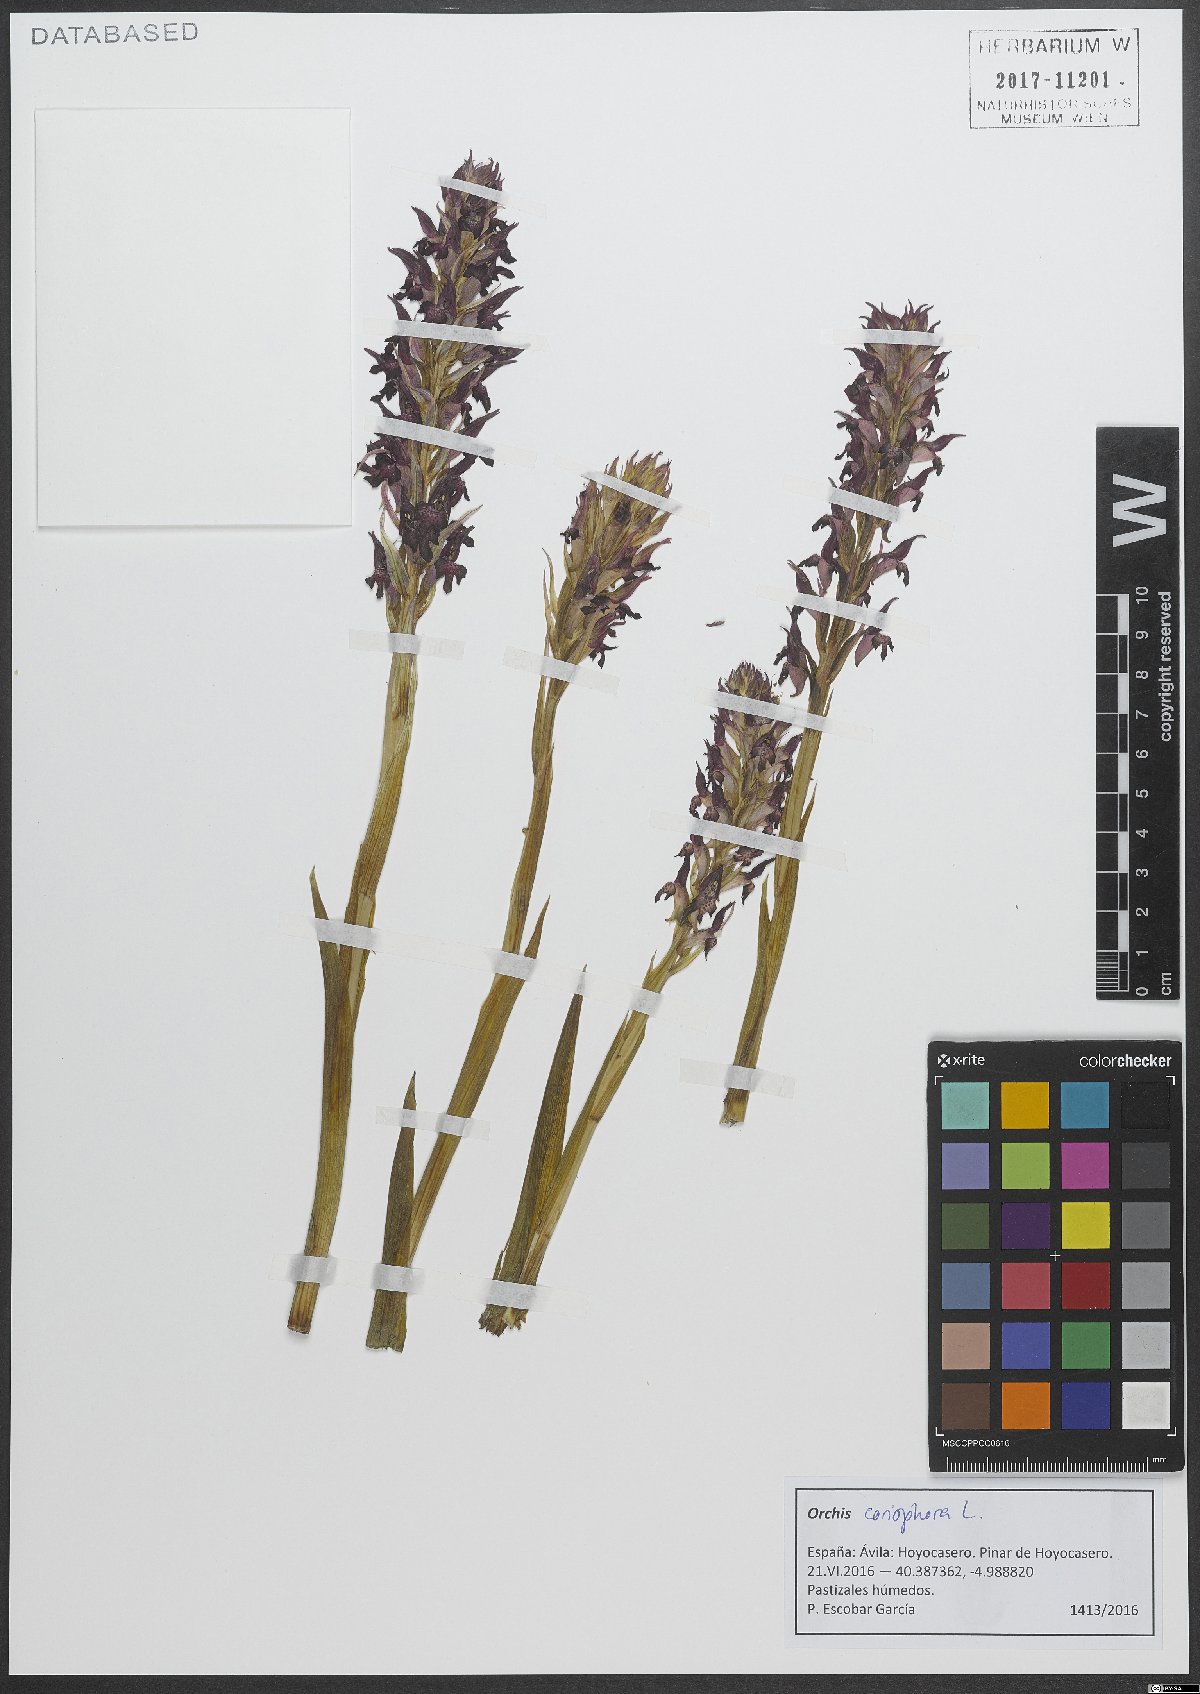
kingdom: Plantae
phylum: Tracheophyta
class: Liliopsida
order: Asparagales
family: Orchidaceae
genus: Anacamptis
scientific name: Anacamptis coriophora
